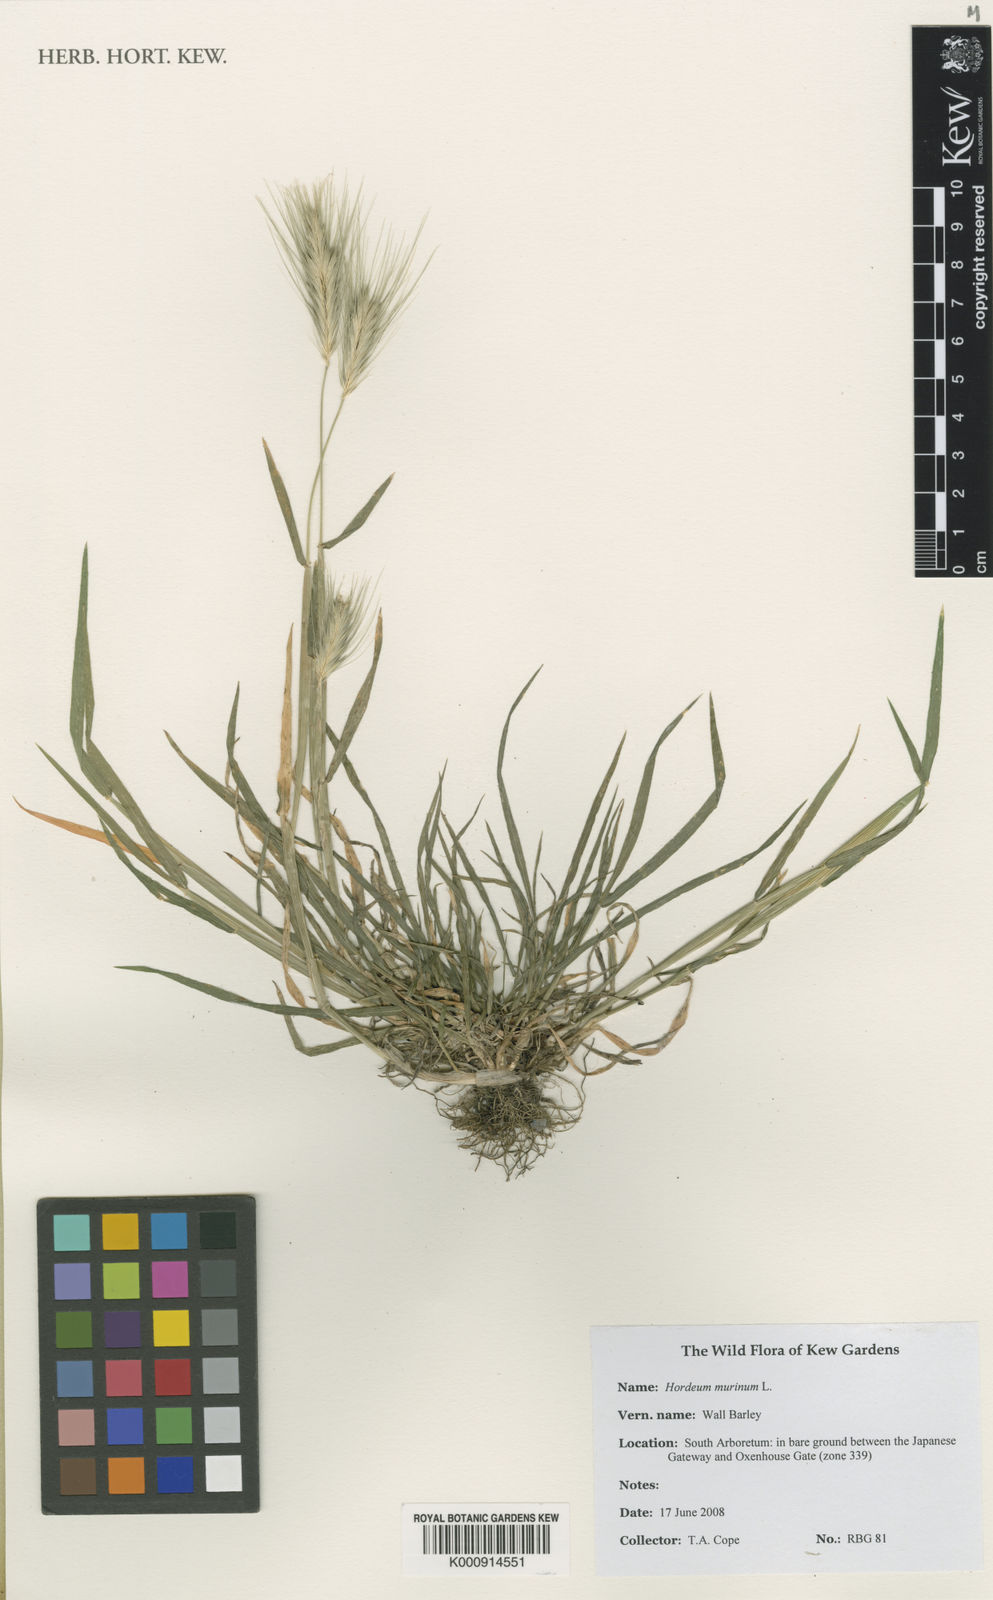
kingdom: Plantae
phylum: Tracheophyta
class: Liliopsida
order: Poales
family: Poaceae
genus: Hordeum
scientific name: Hordeum murinum
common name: Wall barley
